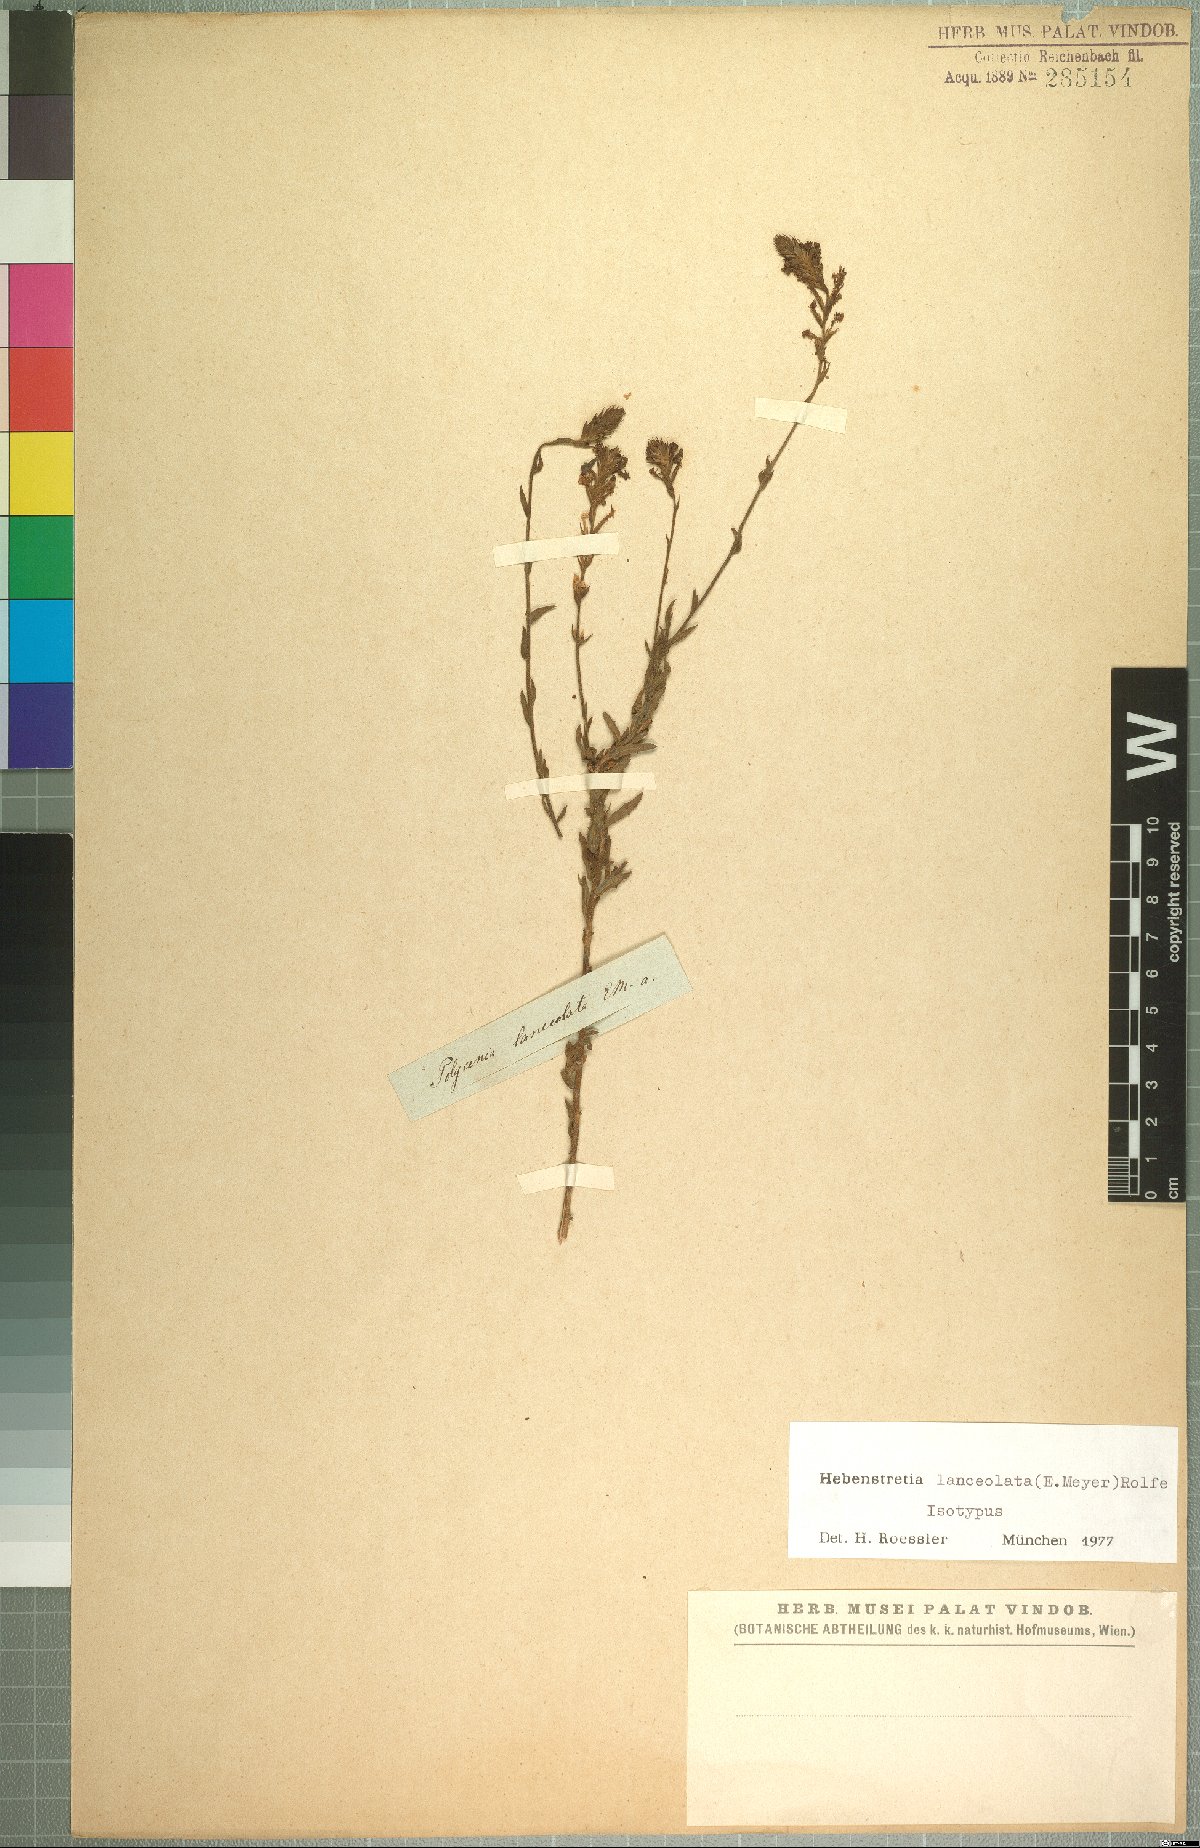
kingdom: Plantae
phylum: Tracheophyta
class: Magnoliopsida
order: Lamiales
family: Scrophulariaceae
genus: Hebenstretia
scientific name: Hebenstretia lanceolata
